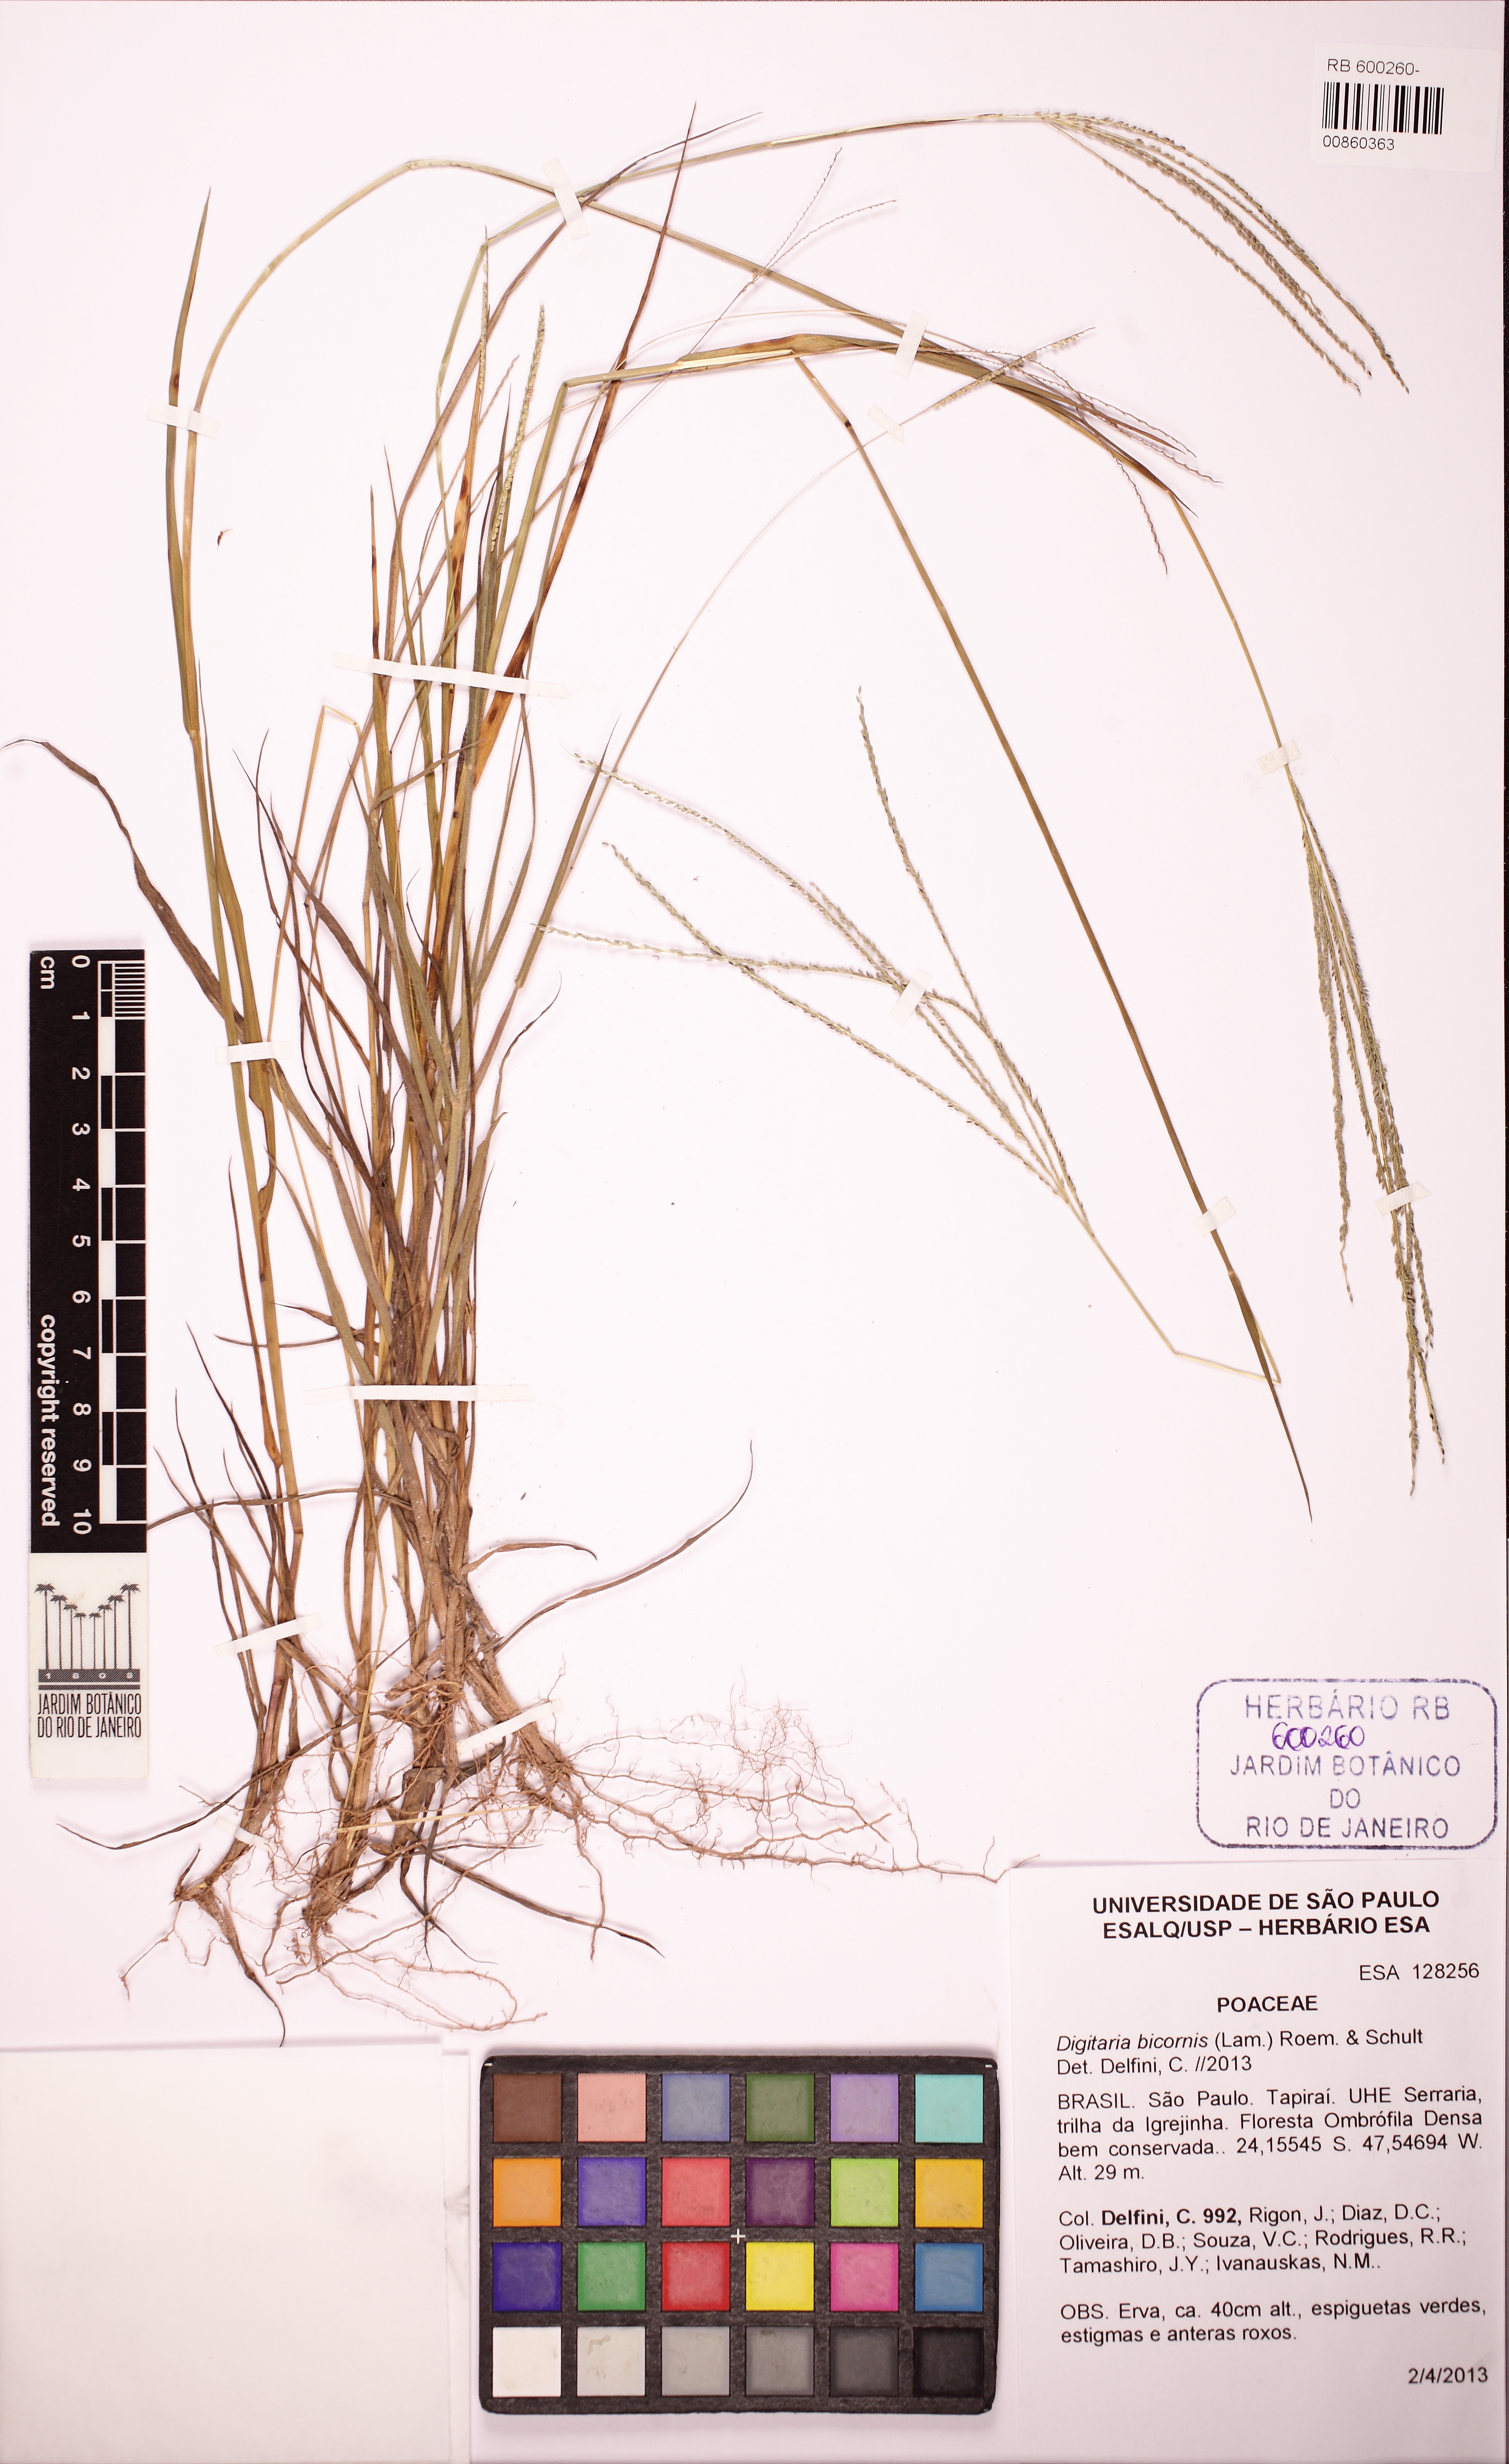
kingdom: Plantae
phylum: Tracheophyta
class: Liliopsida
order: Poales
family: Poaceae
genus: Digitaria
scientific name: Digitaria bicornis
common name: Asian crabgrass
